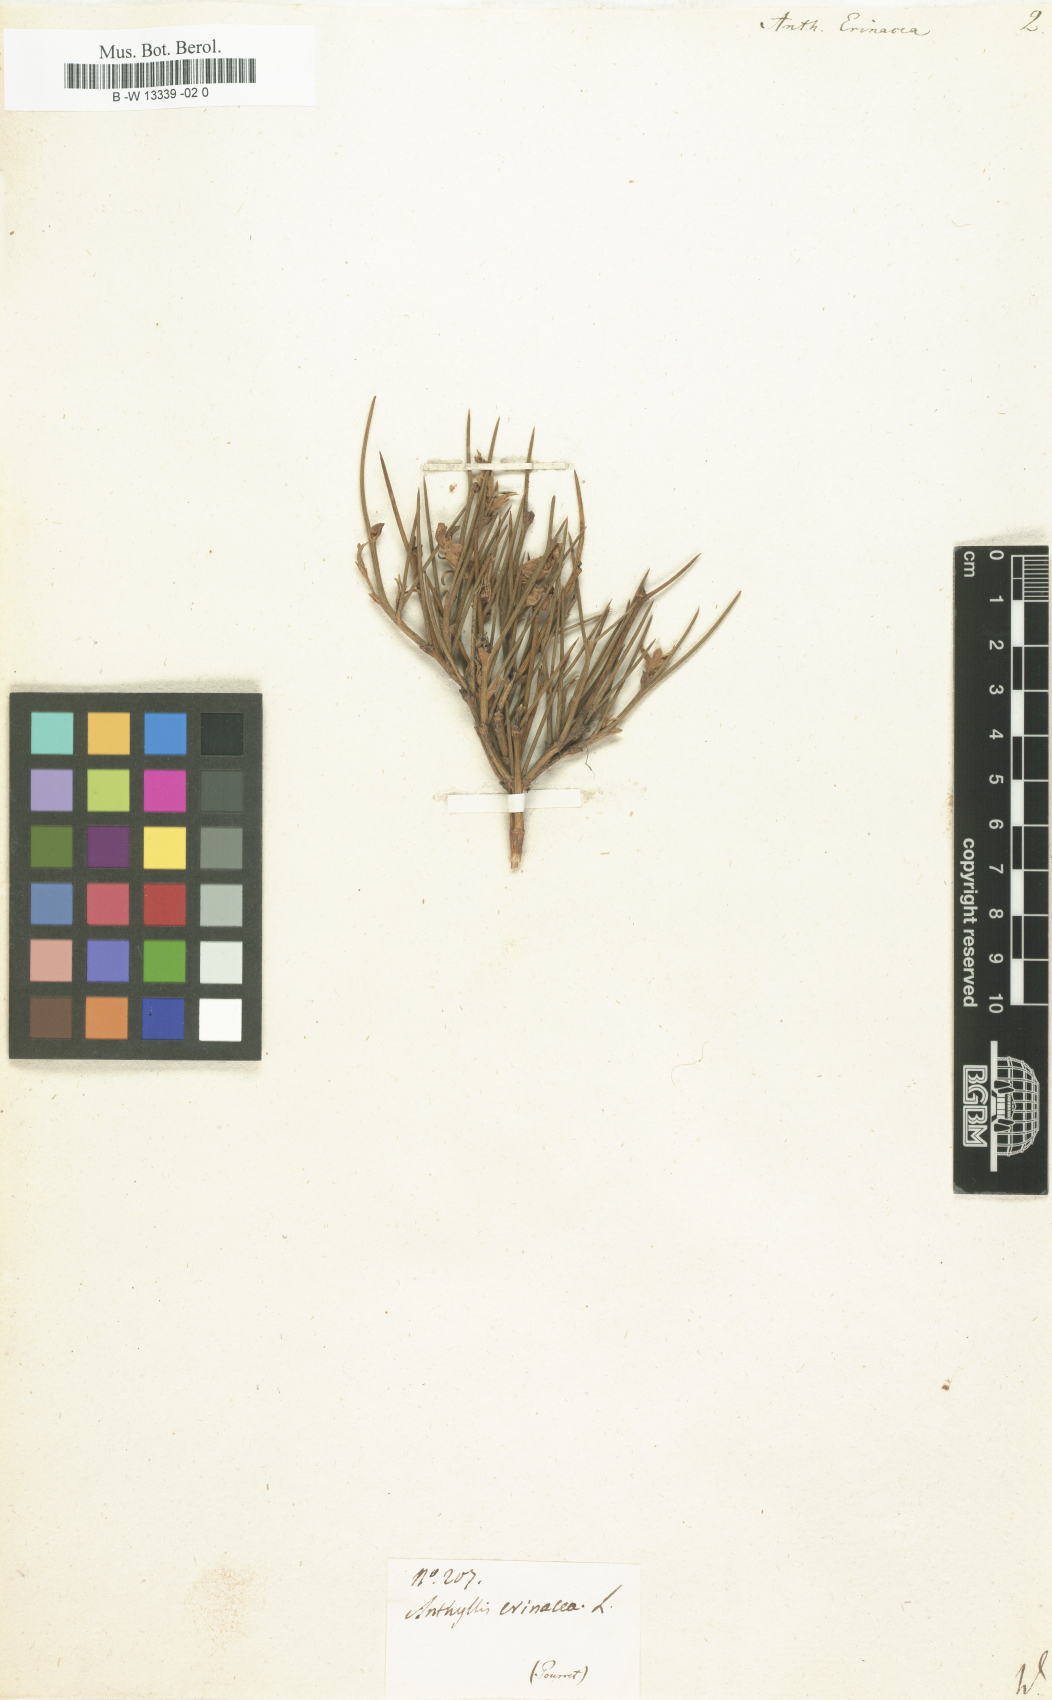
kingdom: Plantae
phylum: Tracheophyta
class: Magnoliopsida
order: Fabales
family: Fabaceae
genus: Erinacea
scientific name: Erinacea anthyllis
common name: Hedgehog-broom
